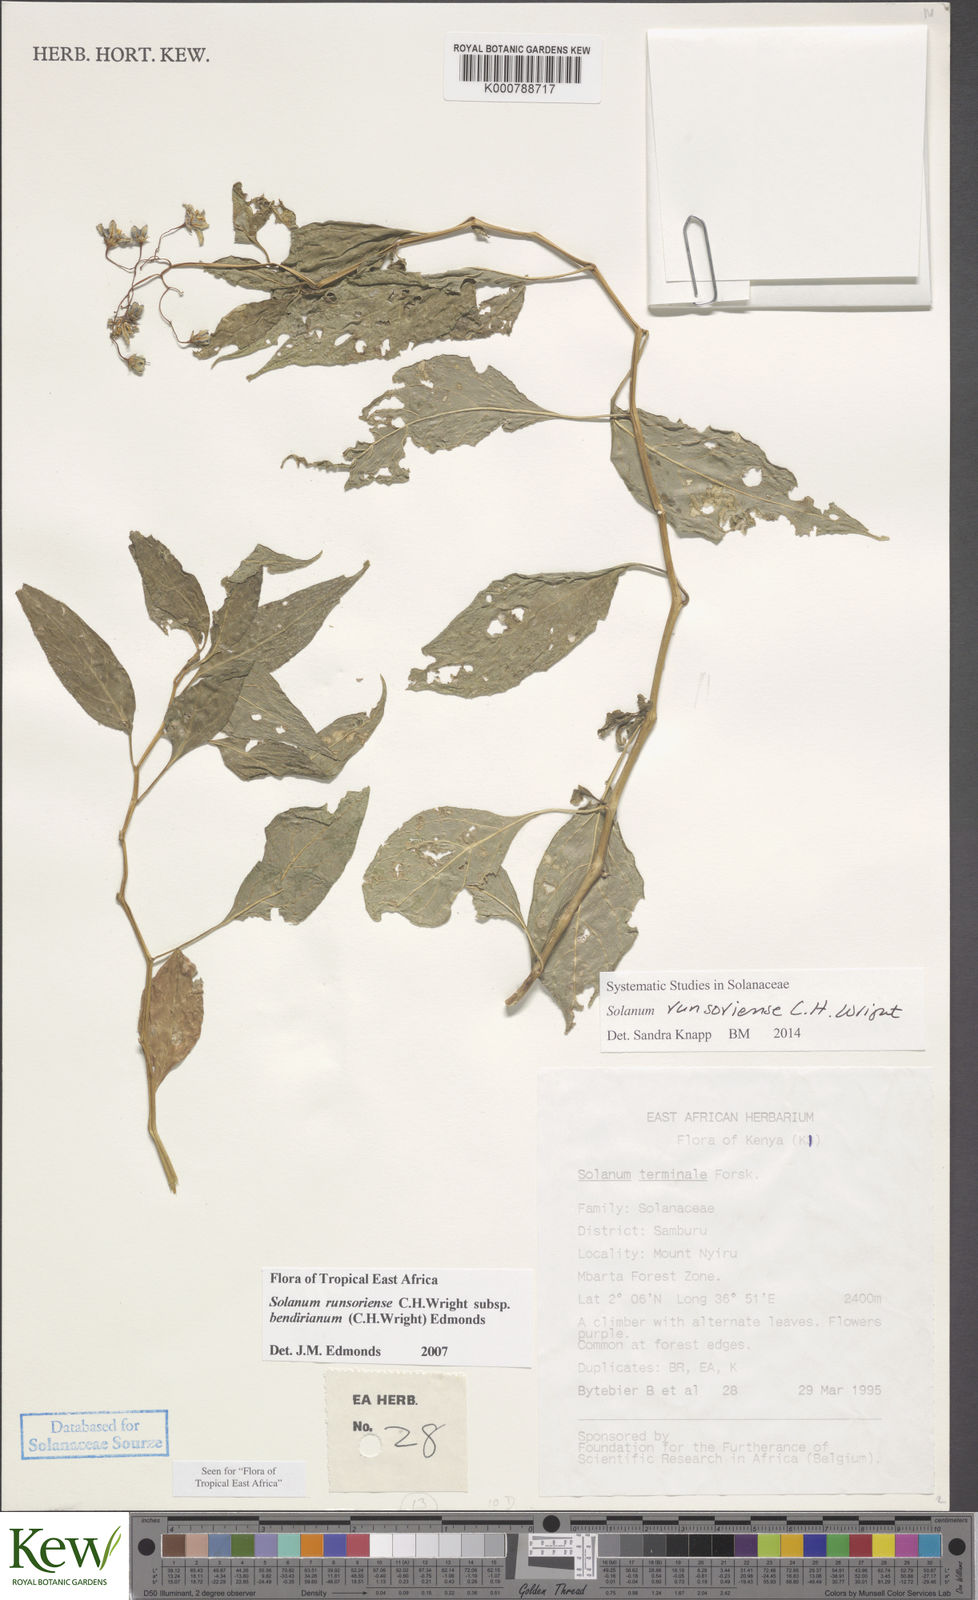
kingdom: Plantae
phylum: Tracheophyta
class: Magnoliopsida
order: Solanales
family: Solanaceae
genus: Solanum
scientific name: Solanum runsoriense
